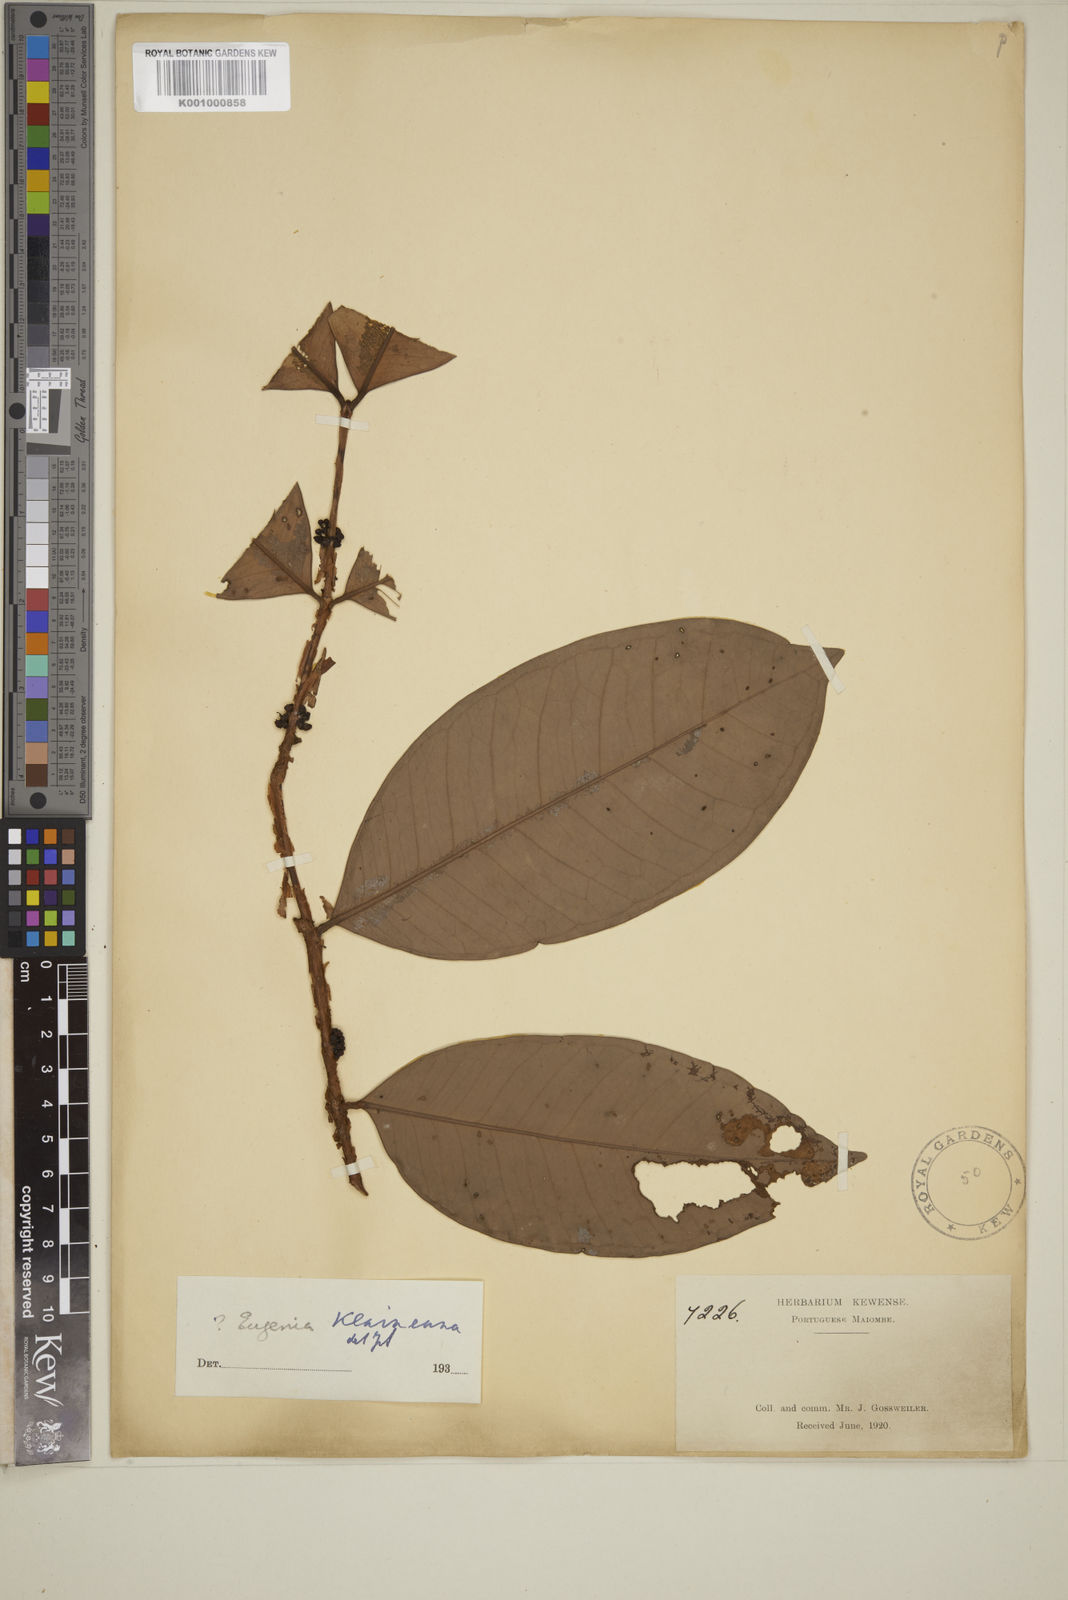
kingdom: Plantae
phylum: Tracheophyta
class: Magnoliopsida
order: Myrtales
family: Myrtaceae
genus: Eugenia
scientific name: Eugenia klaineana
